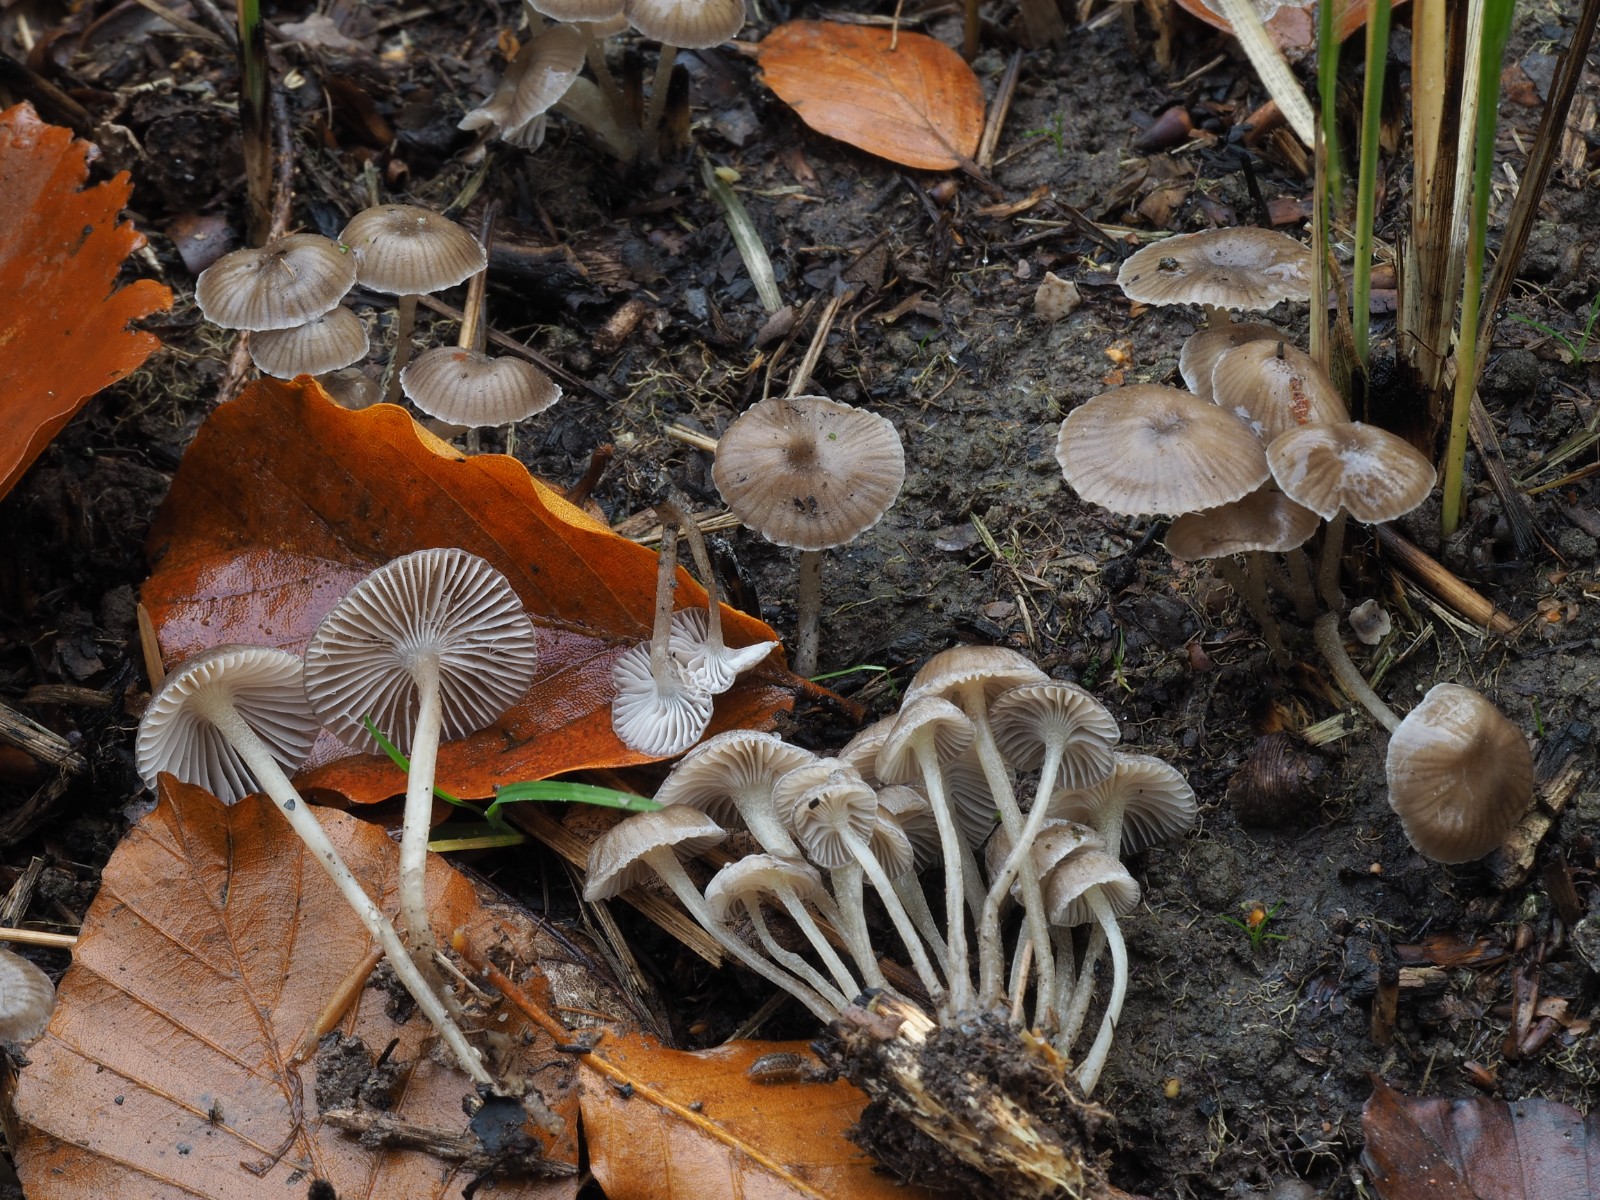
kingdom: Fungi
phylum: Basidiomycota
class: Agaricomycetes
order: Agaricales
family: Mycenaceae
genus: Mycena
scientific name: Mycena epipterygia
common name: Yellowleg bonnet
